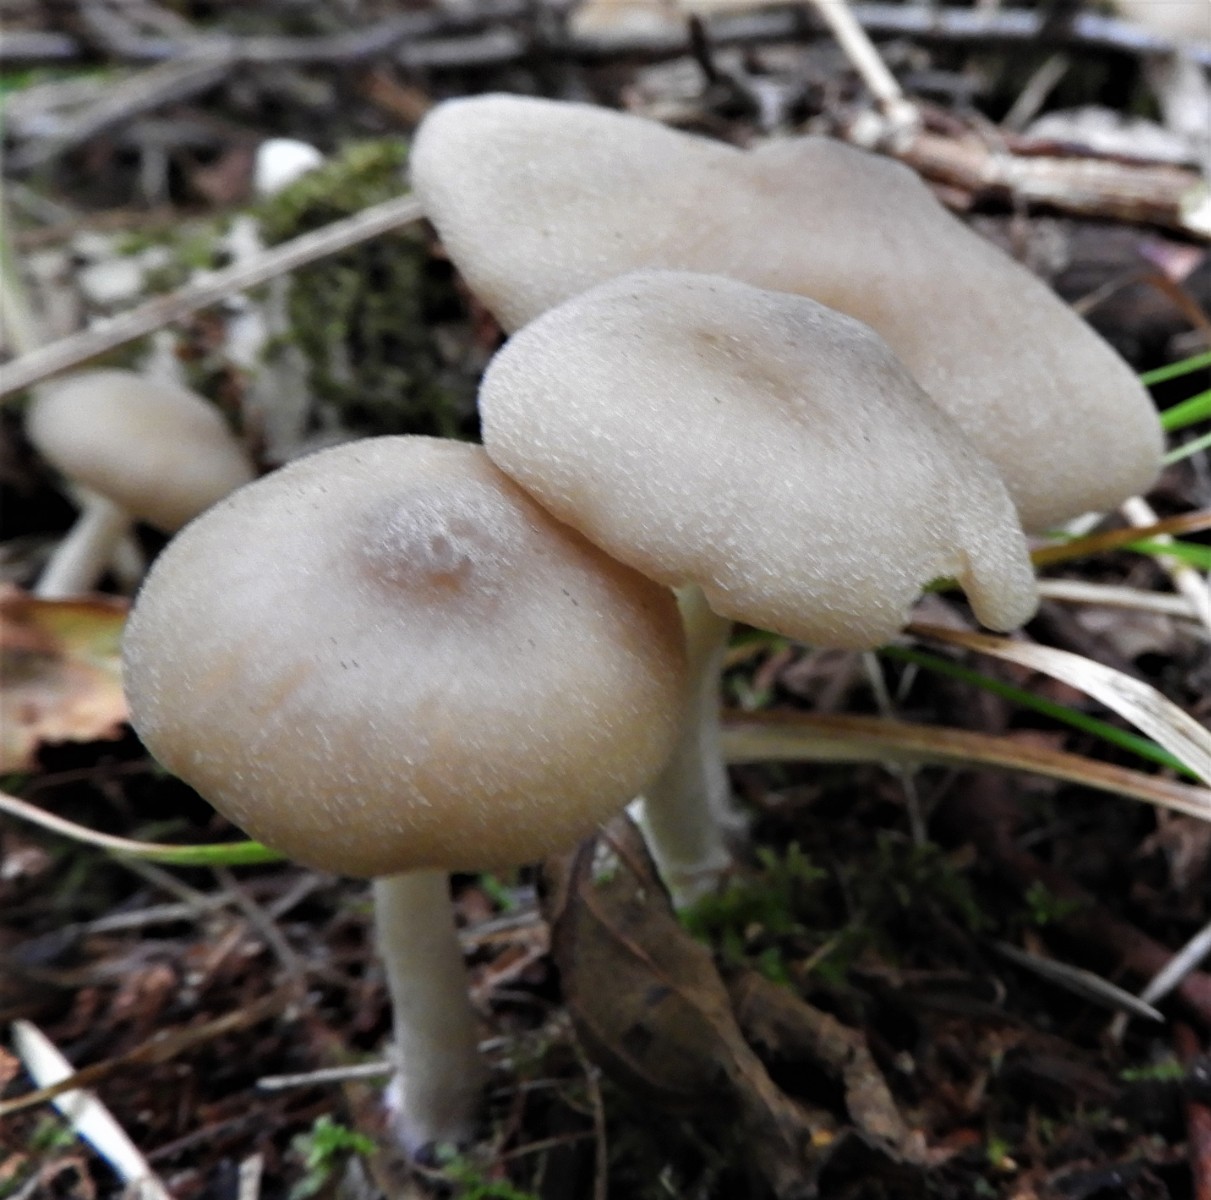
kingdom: Fungi
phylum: Basidiomycota
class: Agaricomycetes
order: Agaricales
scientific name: Agaricales
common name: champignonordenen
